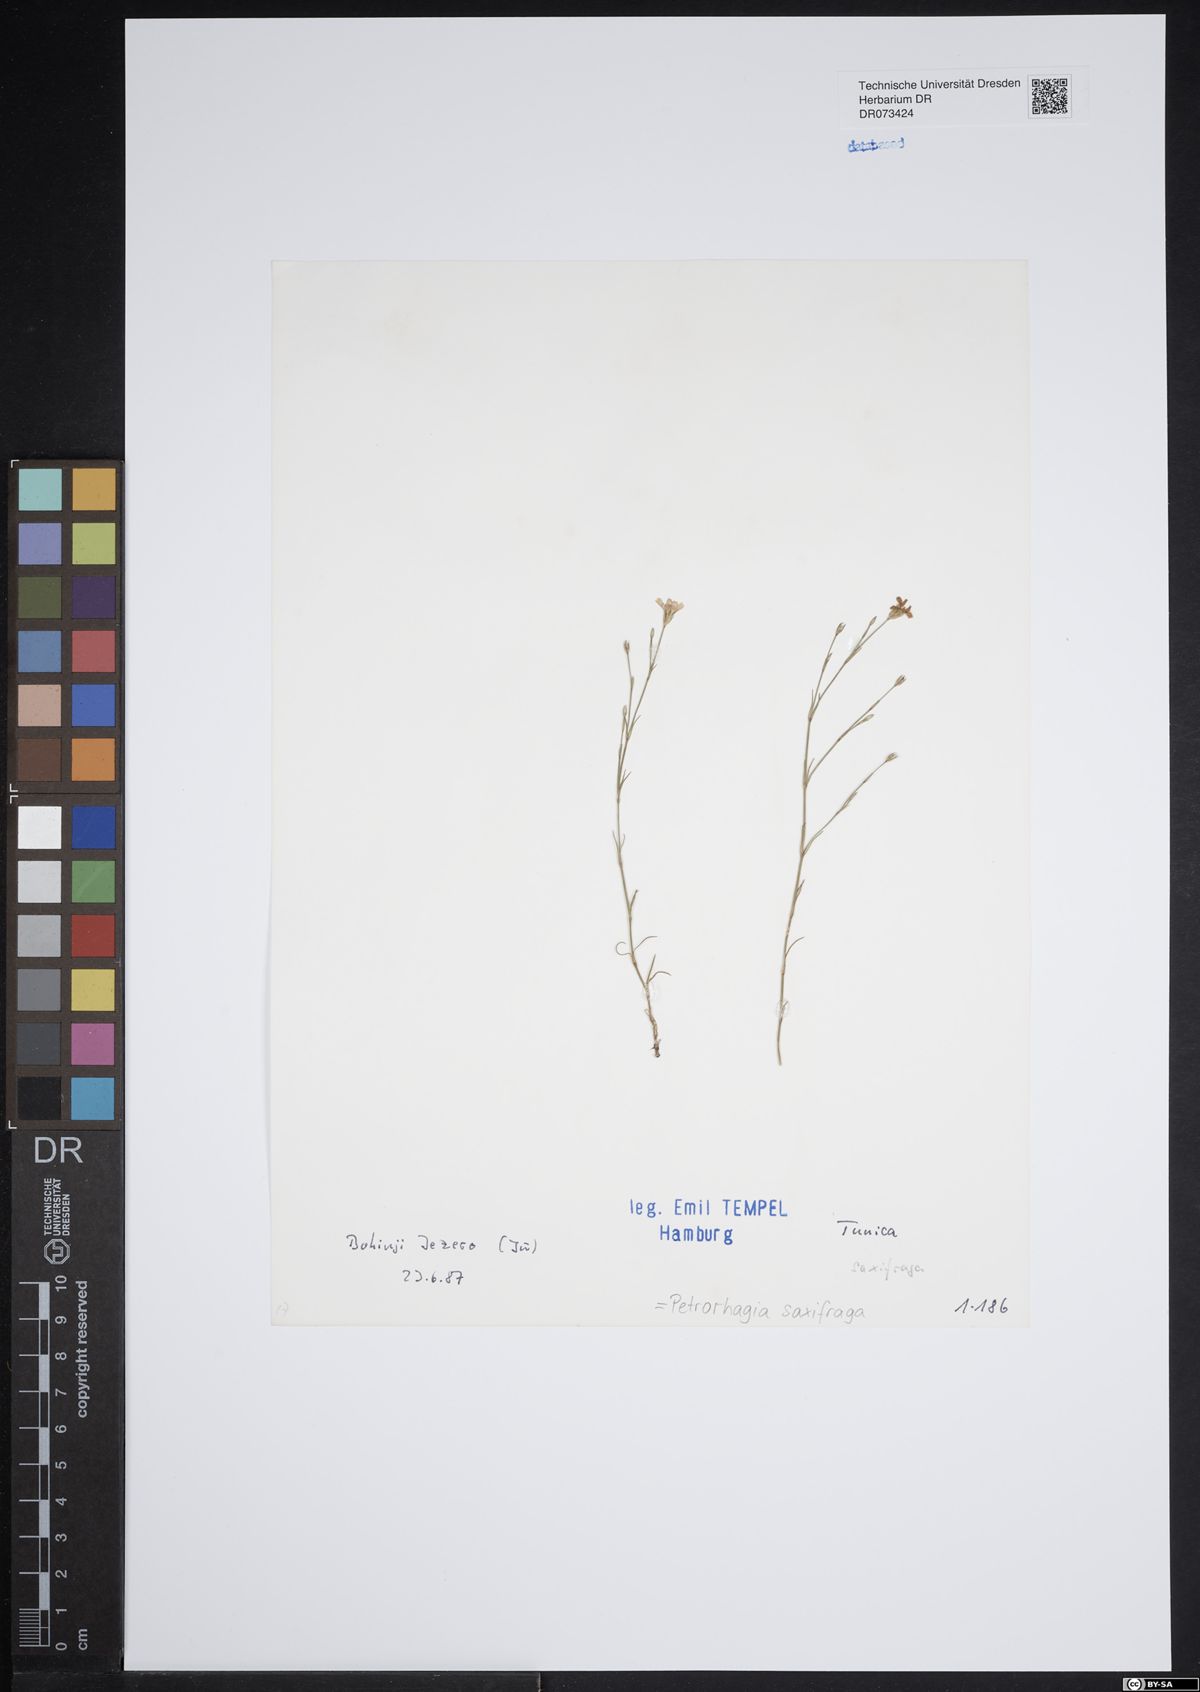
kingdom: Plantae
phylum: Tracheophyta
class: Magnoliopsida
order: Caryophyllales
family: Caryophyllaceae
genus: Petrorhagia
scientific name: Petrorhagia saxifraga
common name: Tunicflower
